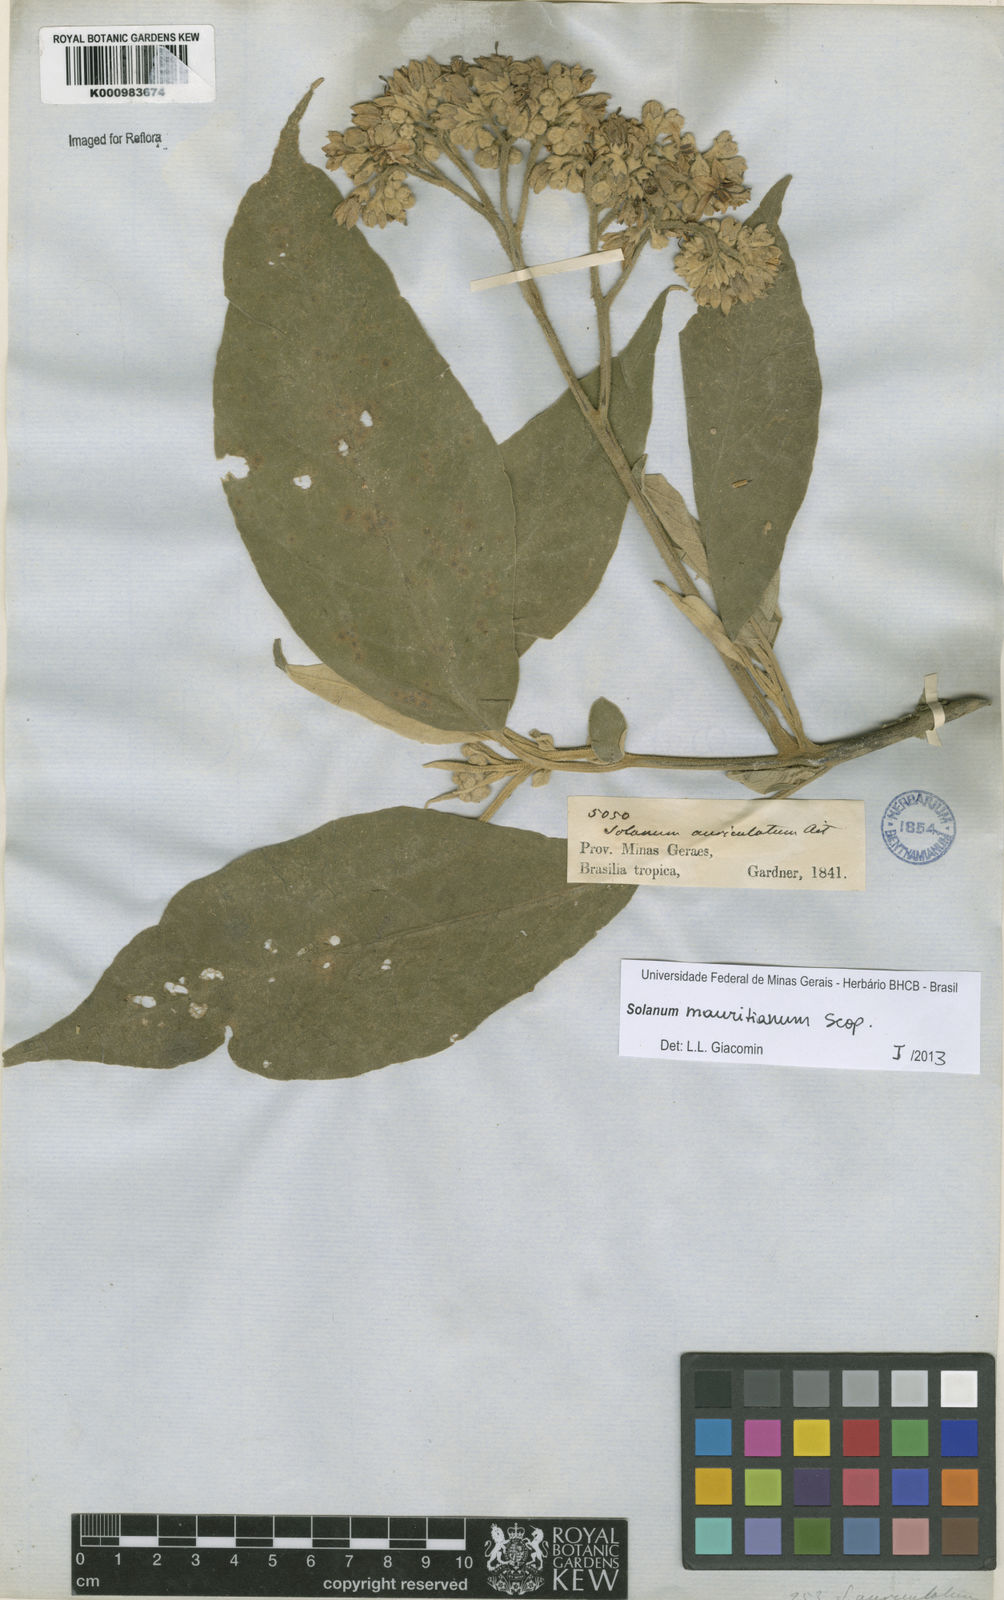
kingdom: Plantae
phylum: Tracheophyta
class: Magnoliopsida
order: Solanales
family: Solanaceae
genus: Solanum
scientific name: Solanum mauritianum
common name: Earleaf nightshade
